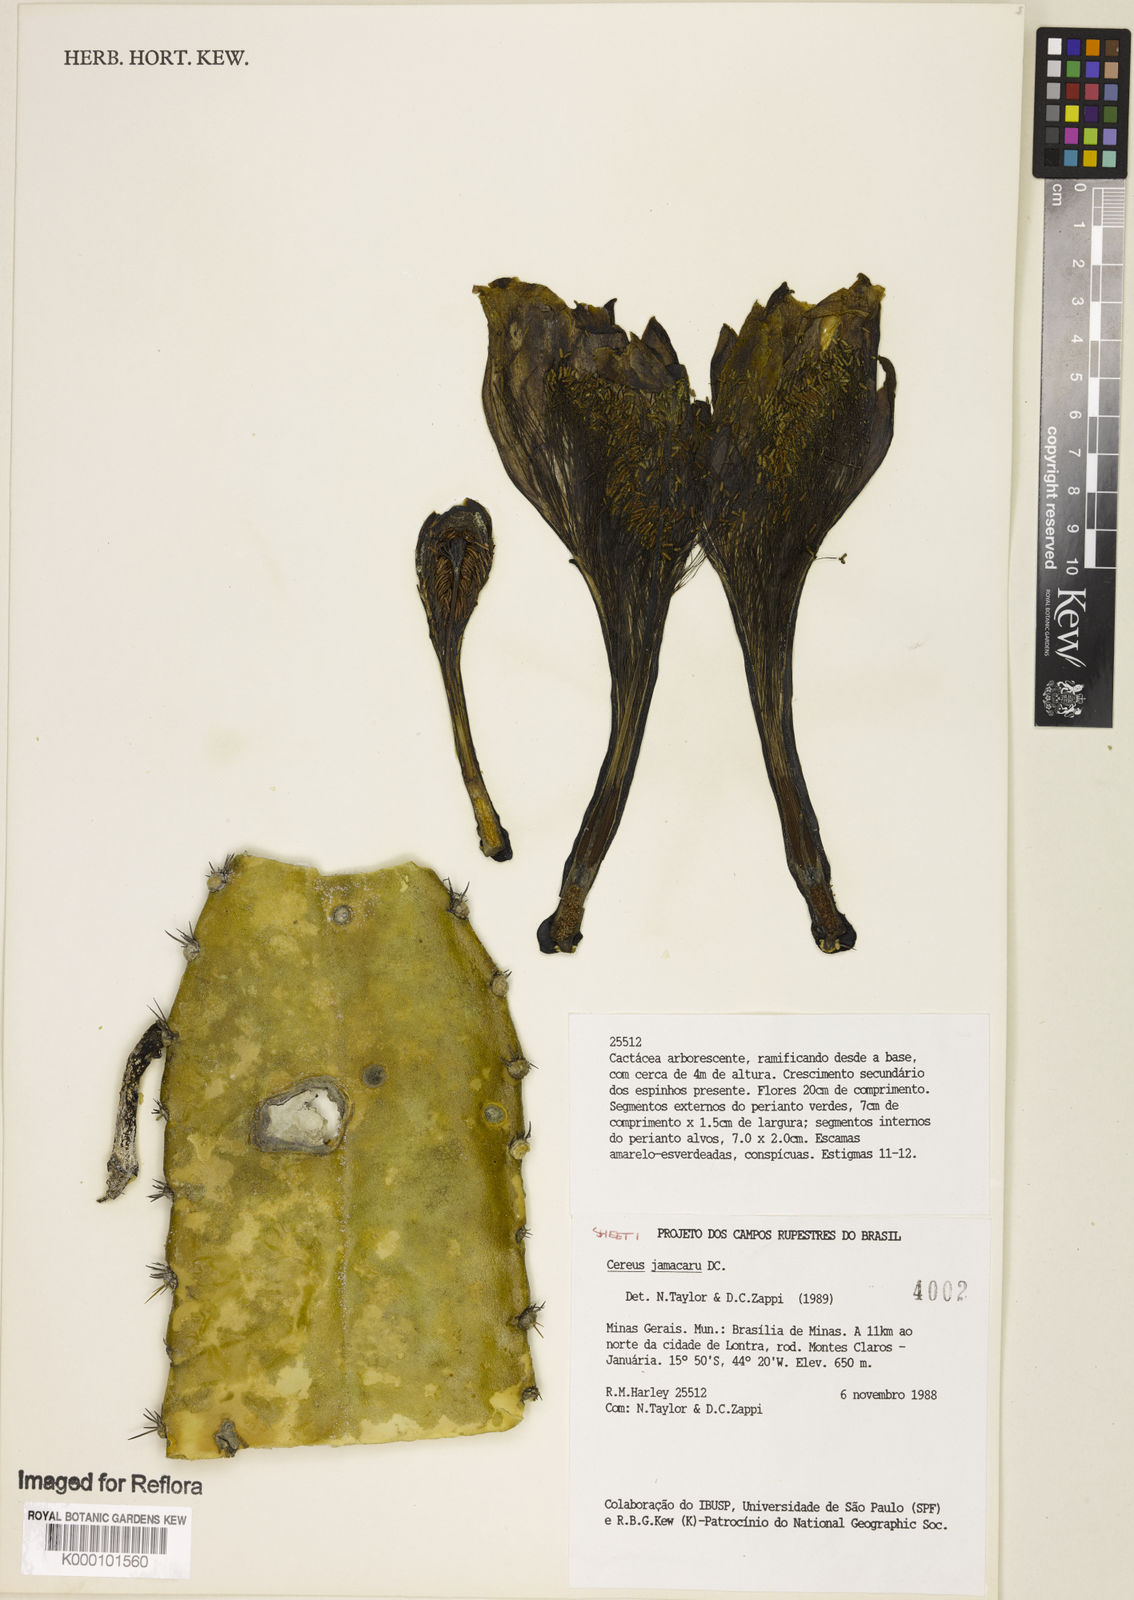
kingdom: Plantae
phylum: Tracheophyta
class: Magnoliopsida
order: Caryophyllales
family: Cactaceae
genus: Cereus
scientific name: Cereus jamacaru
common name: Queen-of-the-night
